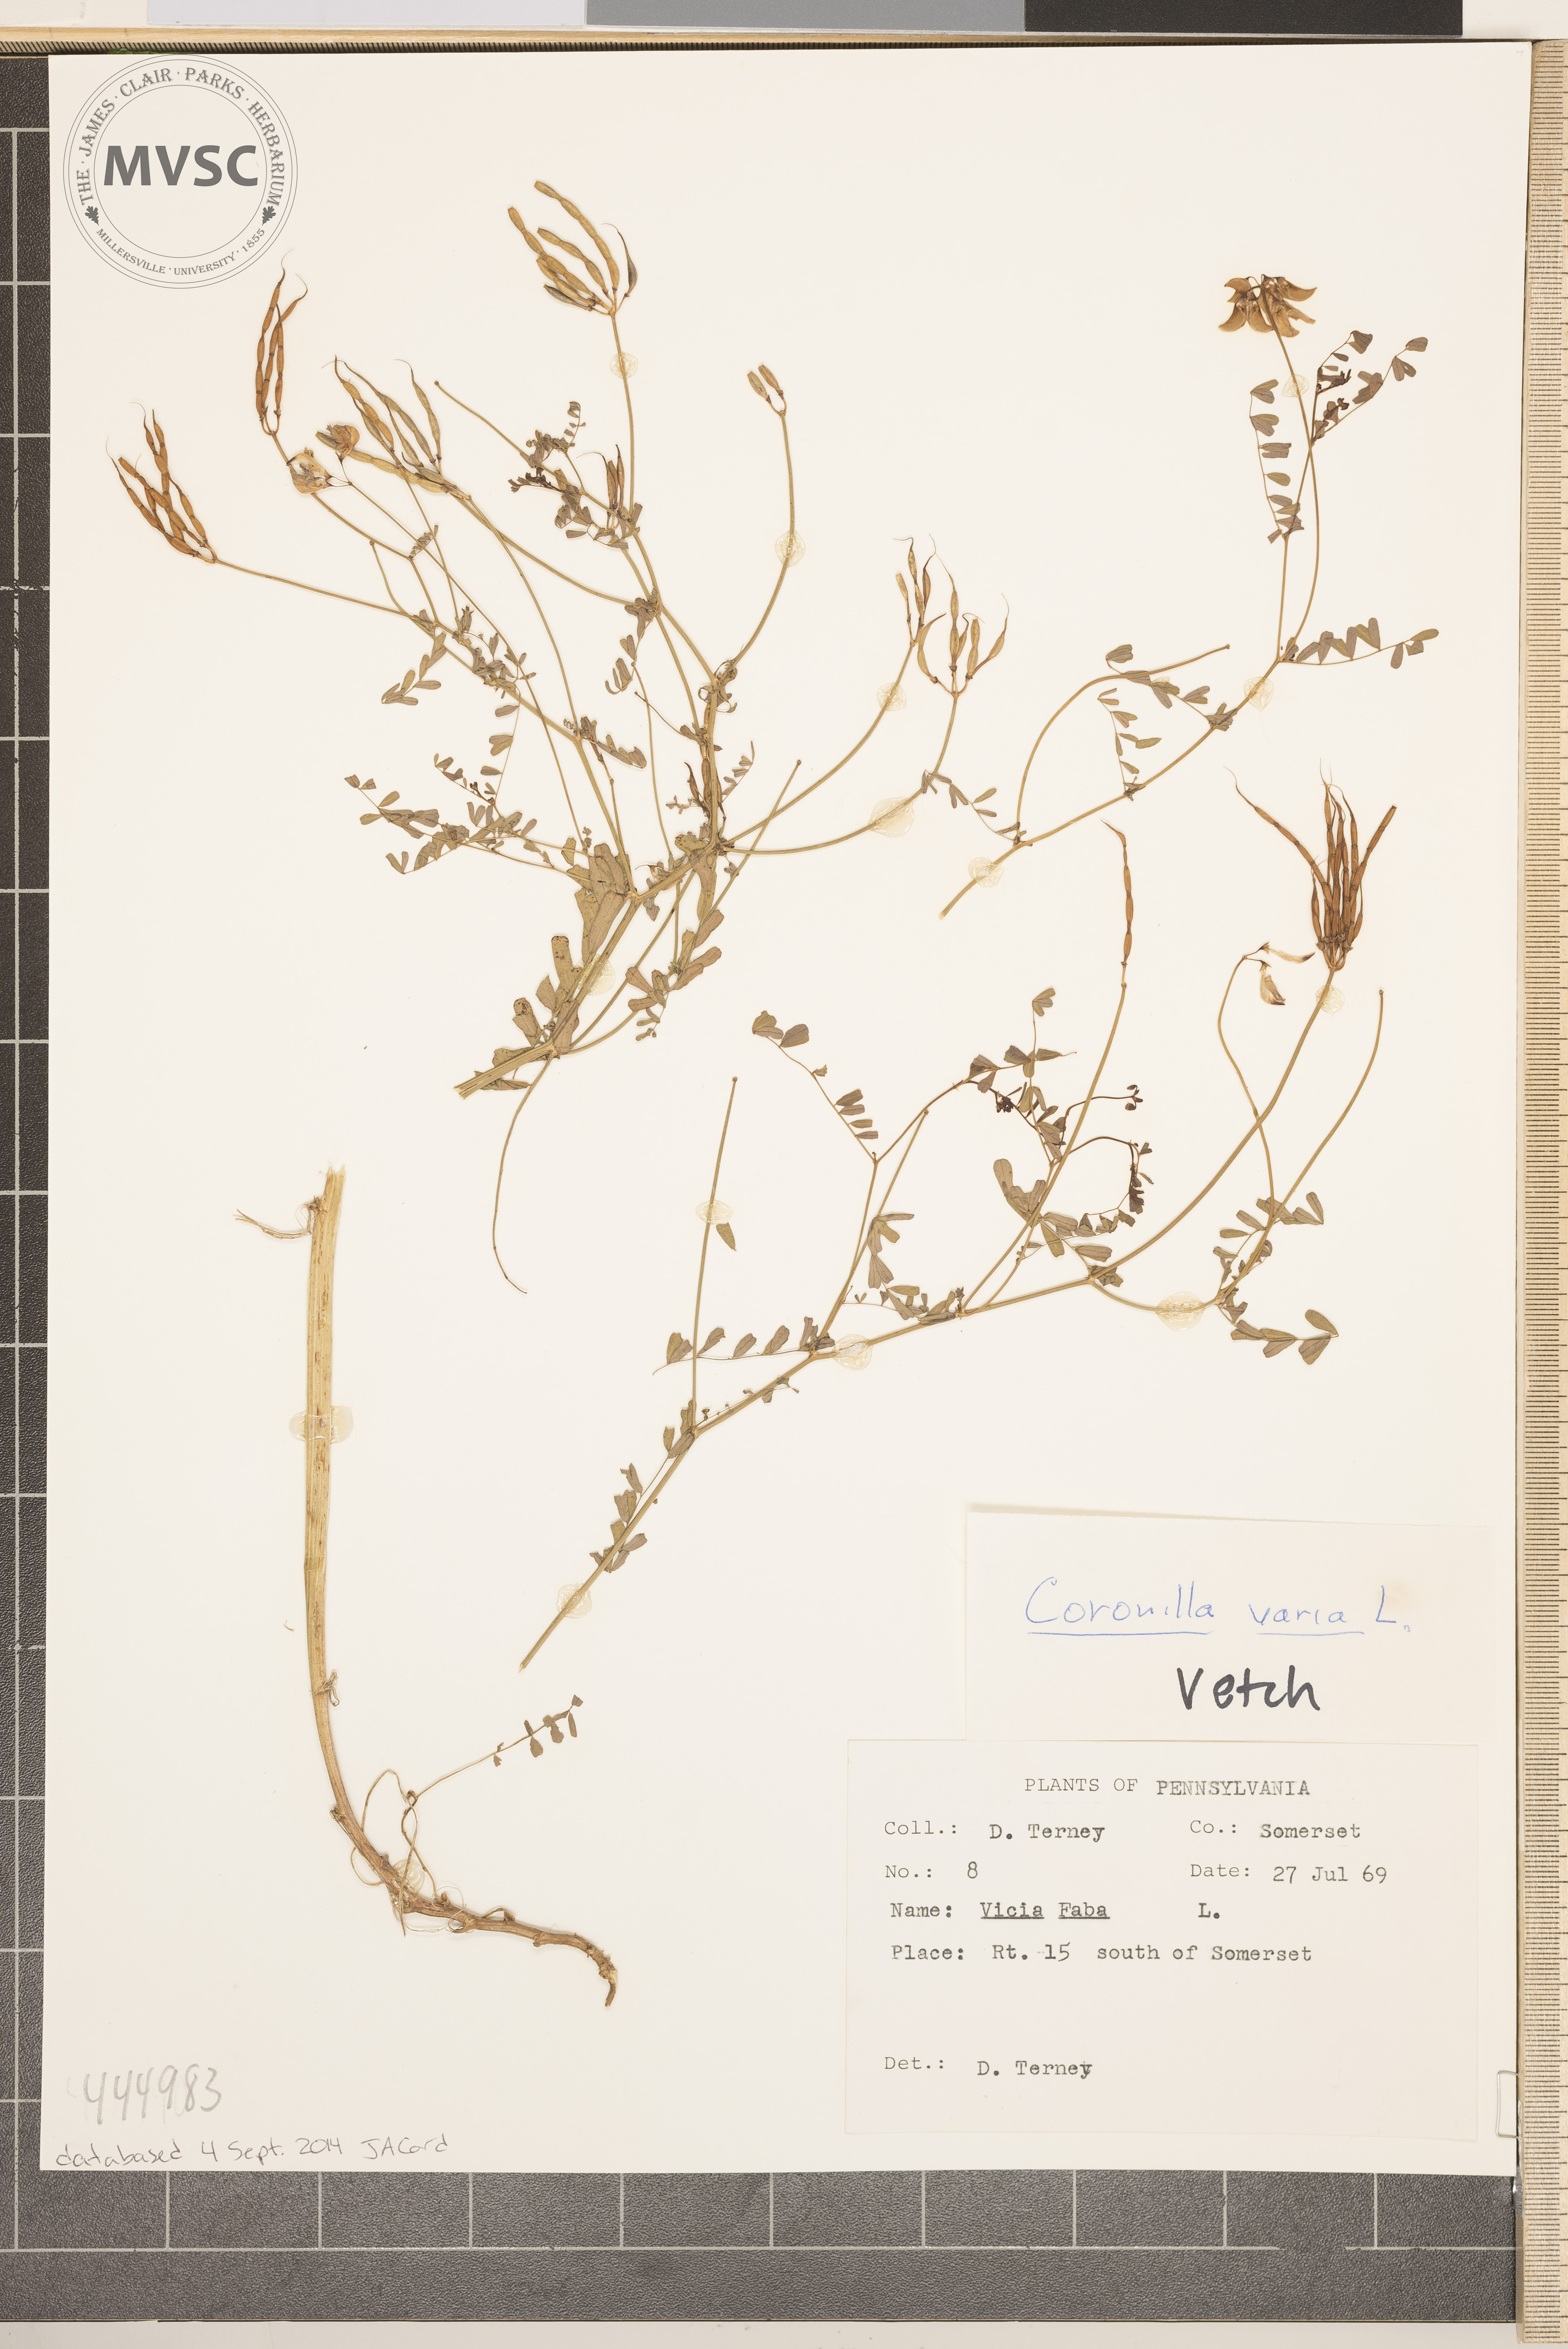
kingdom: Plantae
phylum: Tracheophyta
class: Magnoliopsida
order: Fabales
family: Fabaceae
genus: Coronilla
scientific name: Coronilla varia
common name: Crownvetch
